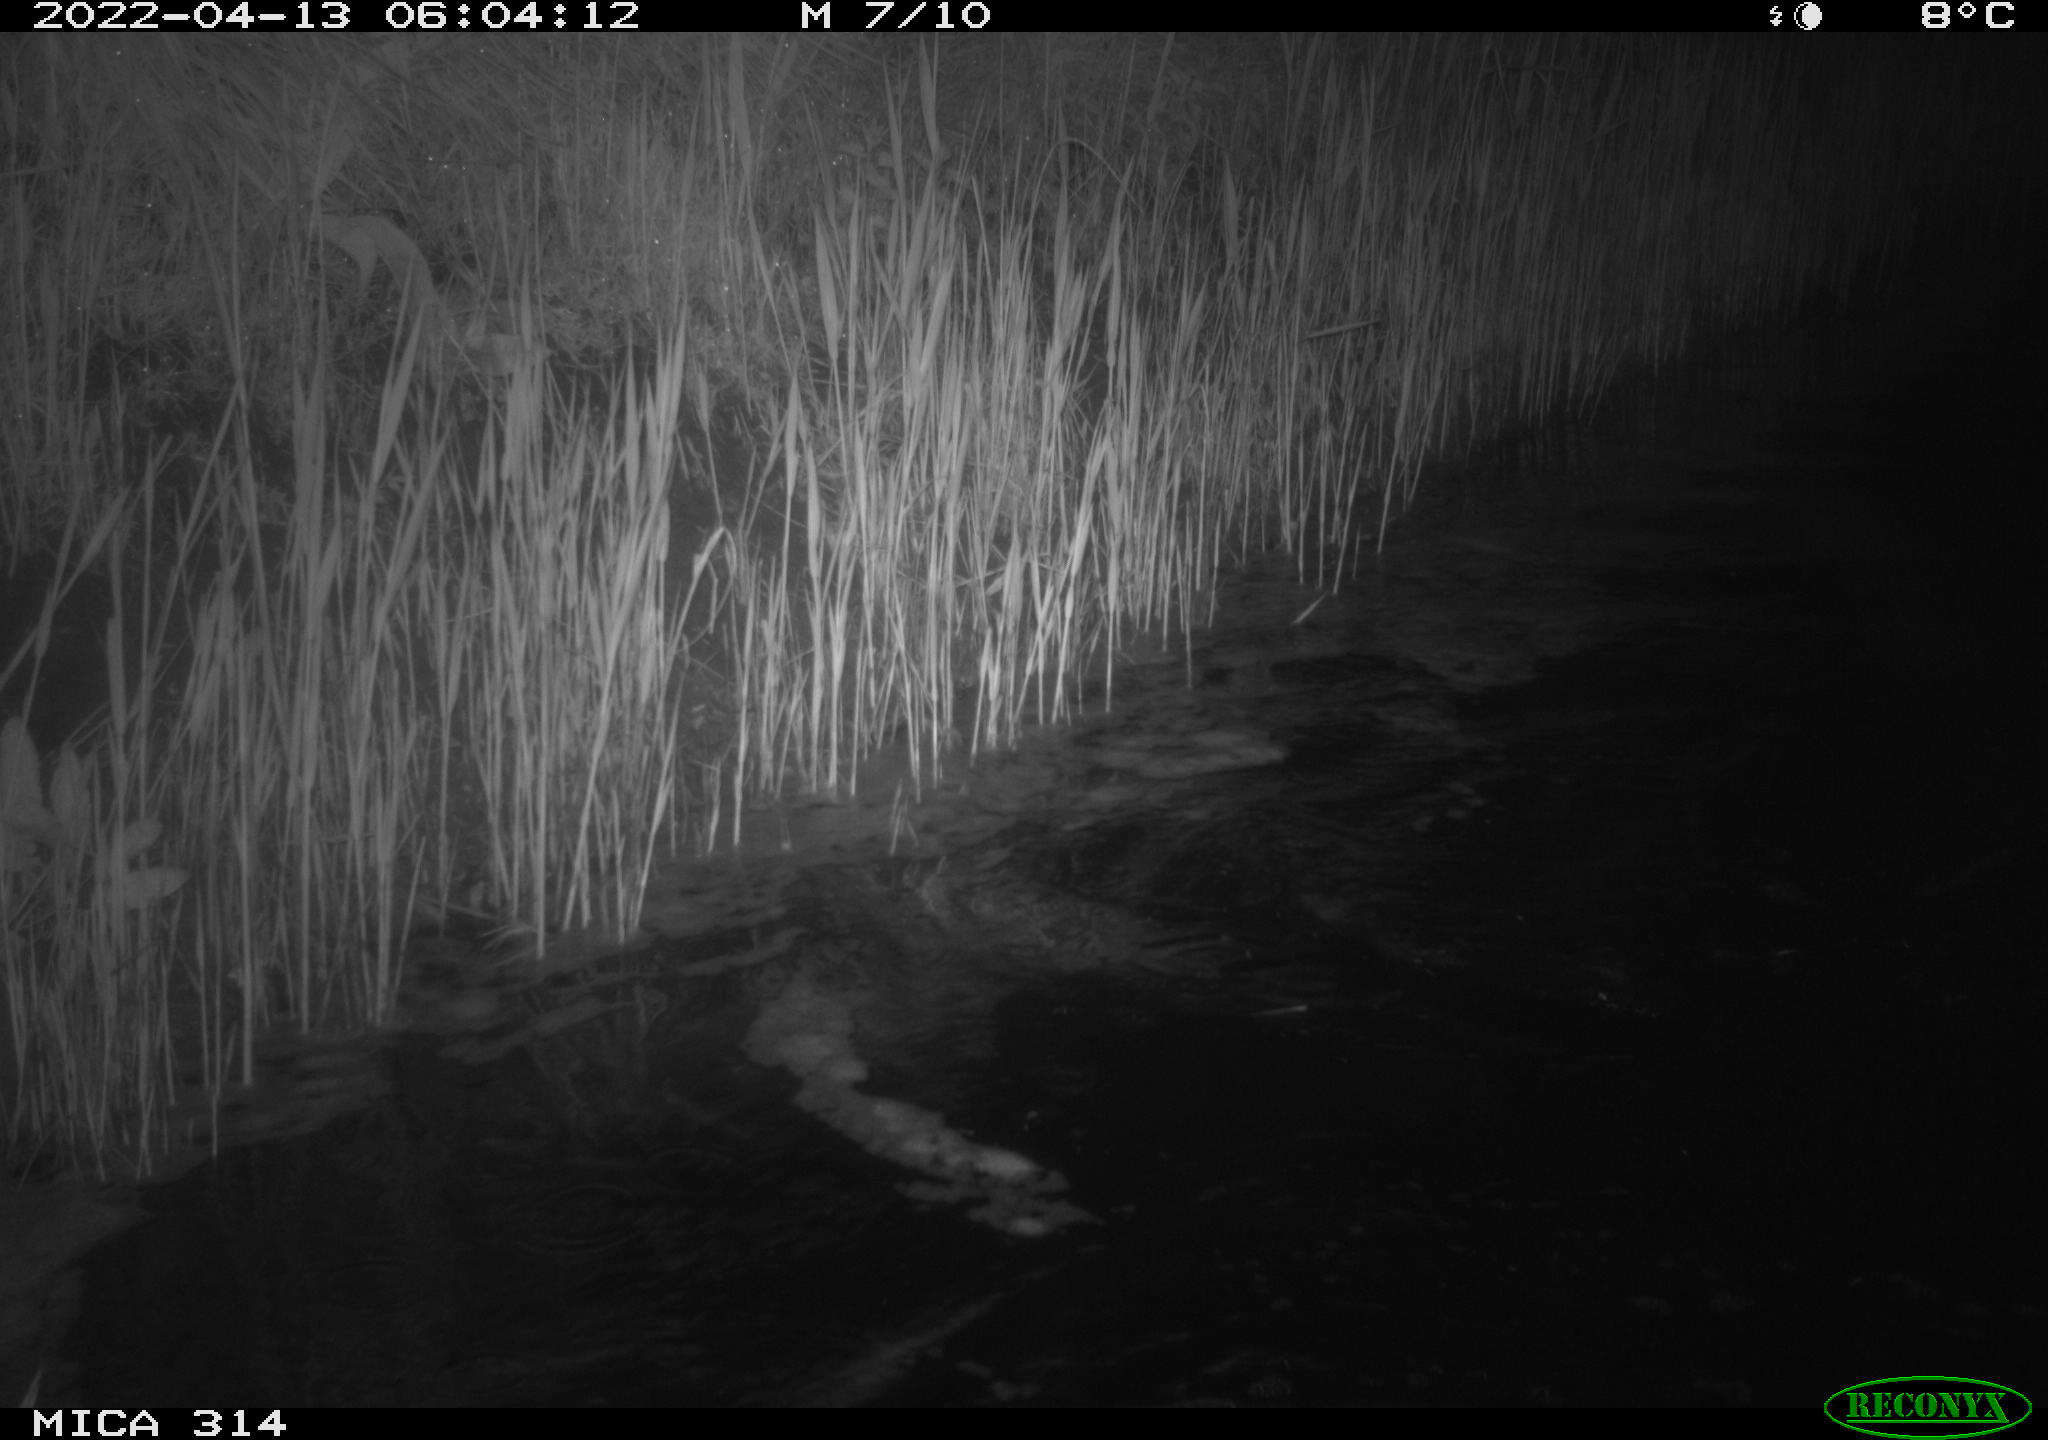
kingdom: Animalia
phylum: Chordata
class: Aves
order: Anseriformes
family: Anatidae
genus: Anas
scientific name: Anas platyrhynchos
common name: Mallard
